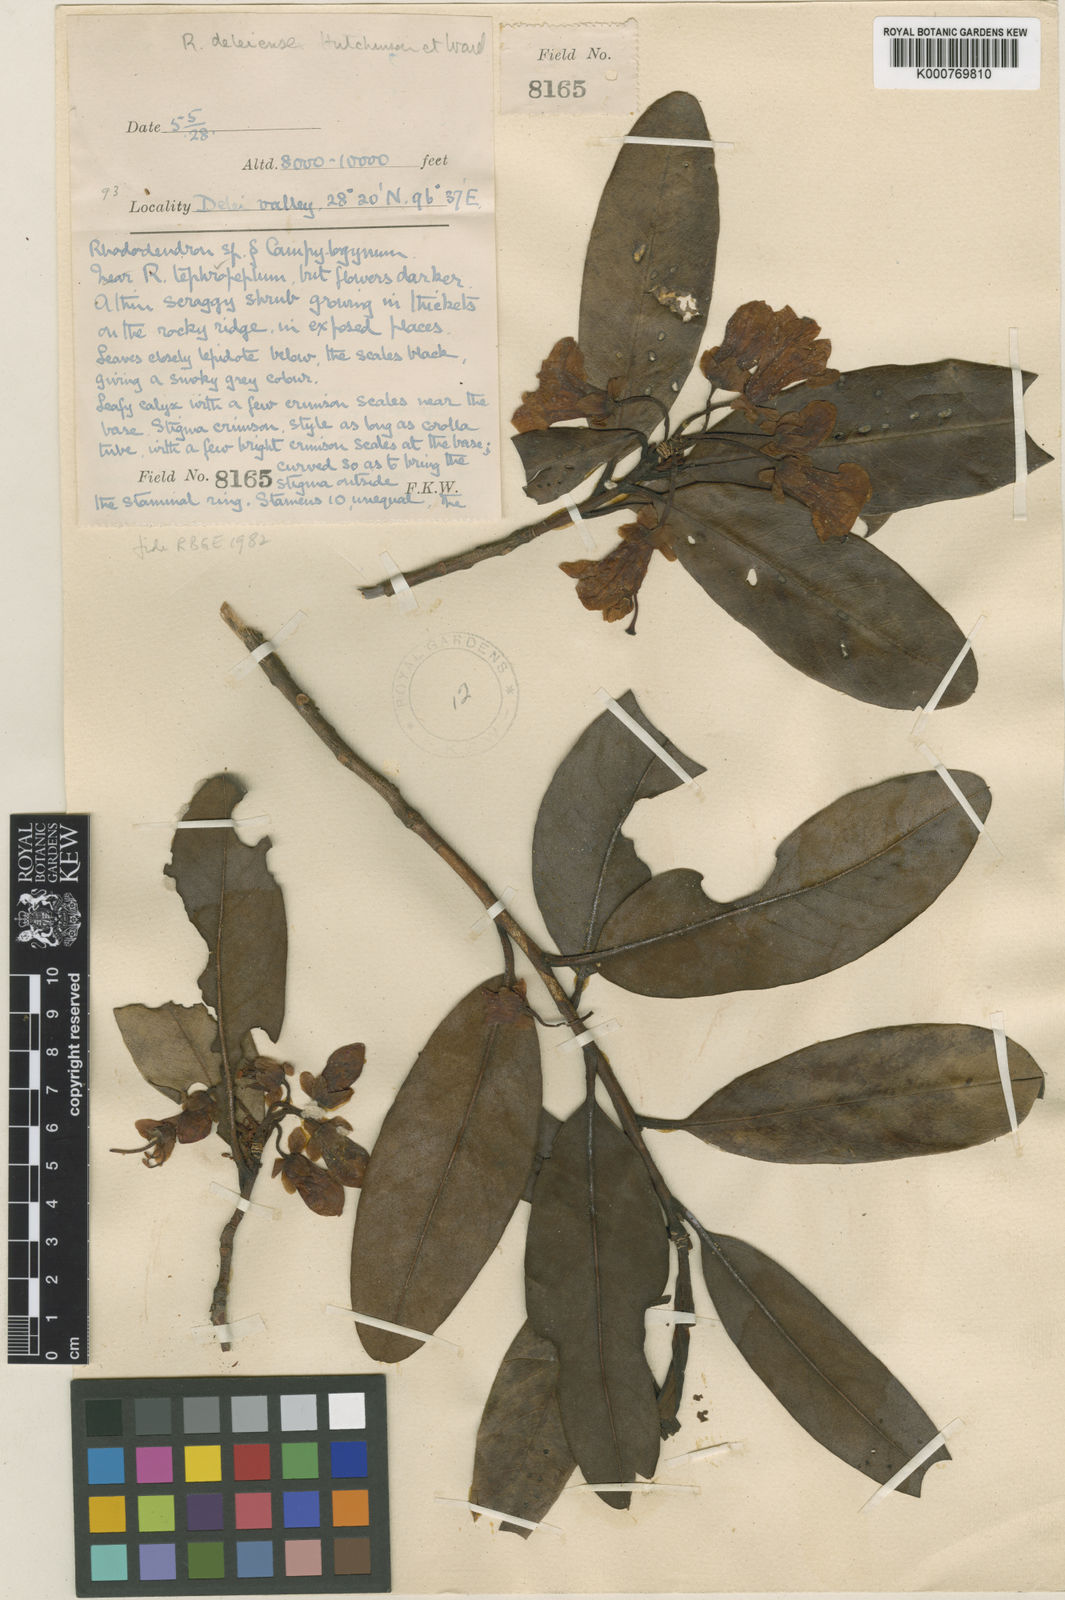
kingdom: Plantae
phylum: Tracheophyta
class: Magnoliopsida
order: Ericales
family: Ericaceae
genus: Rhododendron
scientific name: Rhododendron
